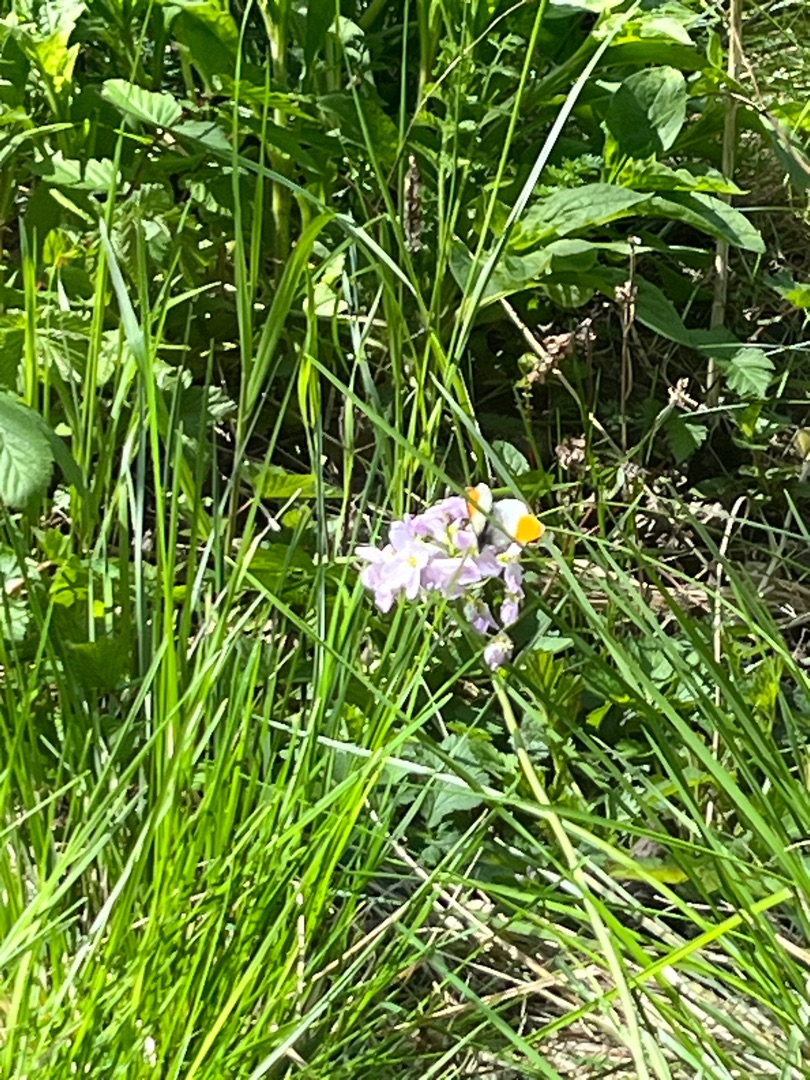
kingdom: Animalia
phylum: Arthropoda
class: Insecta
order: Lepidoptera
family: Pieridae
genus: Anthocharis
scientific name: Anthocharis cardamines
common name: Aurora
